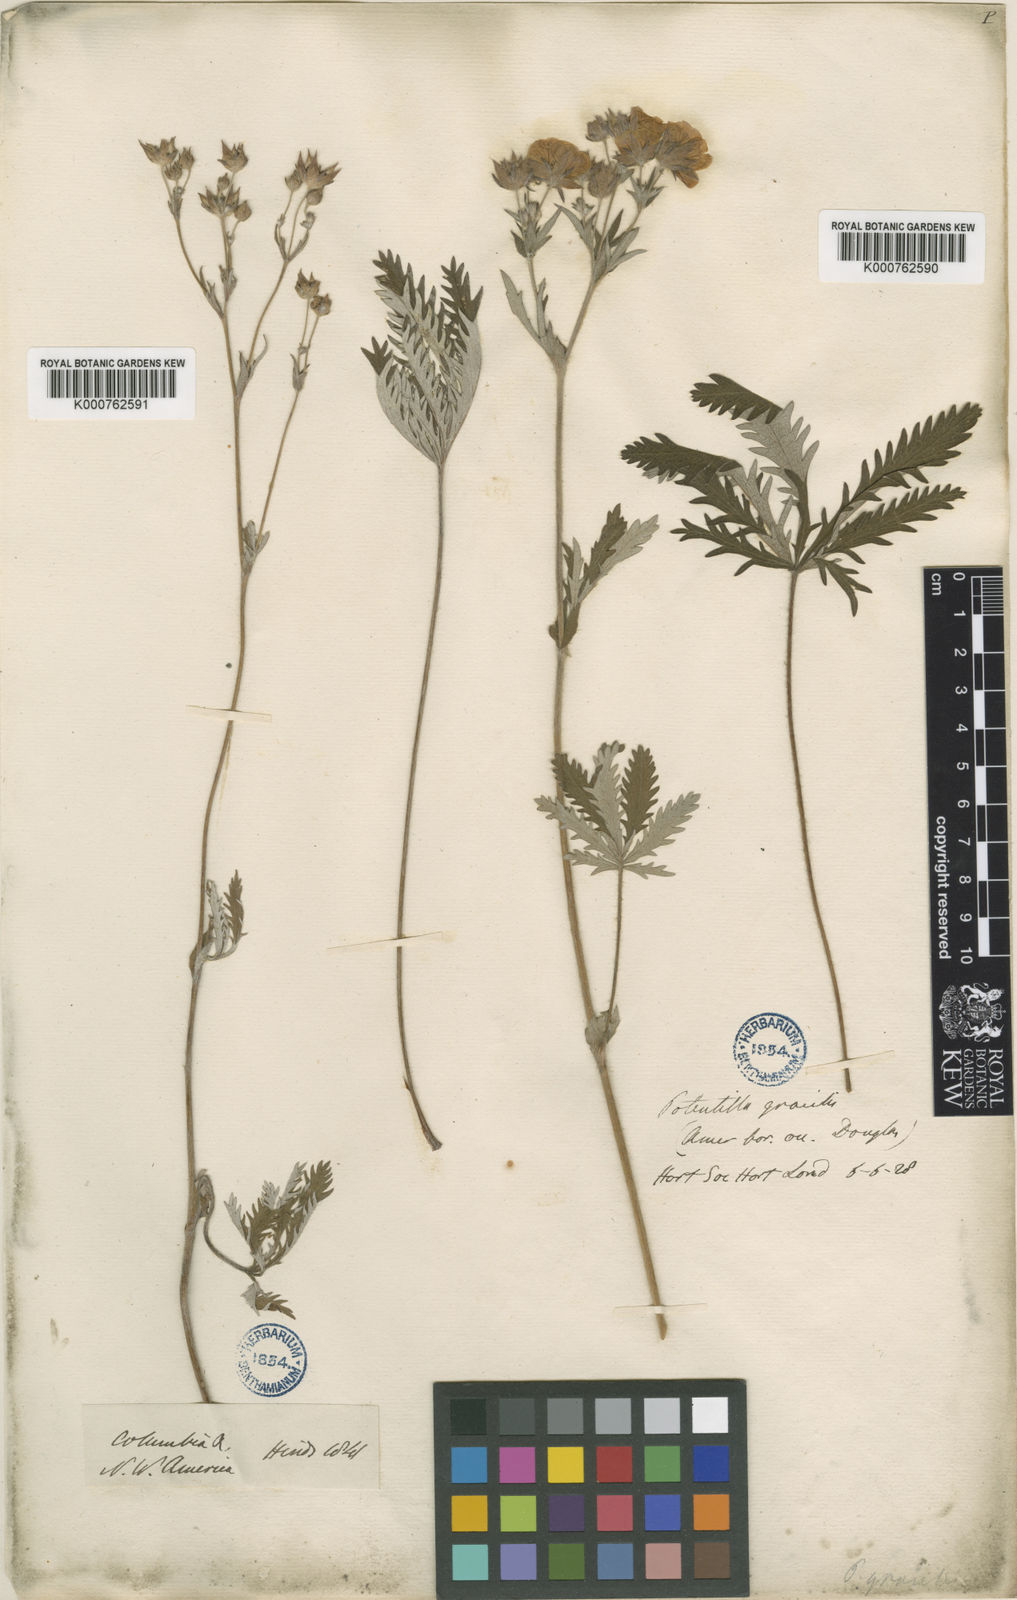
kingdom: Plantae
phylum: Tracheophyta
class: Magnoliopsida
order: Rosales
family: Rosaceae
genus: Potentilla
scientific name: Potentilla gracilis
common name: Graceful cinquefoil
